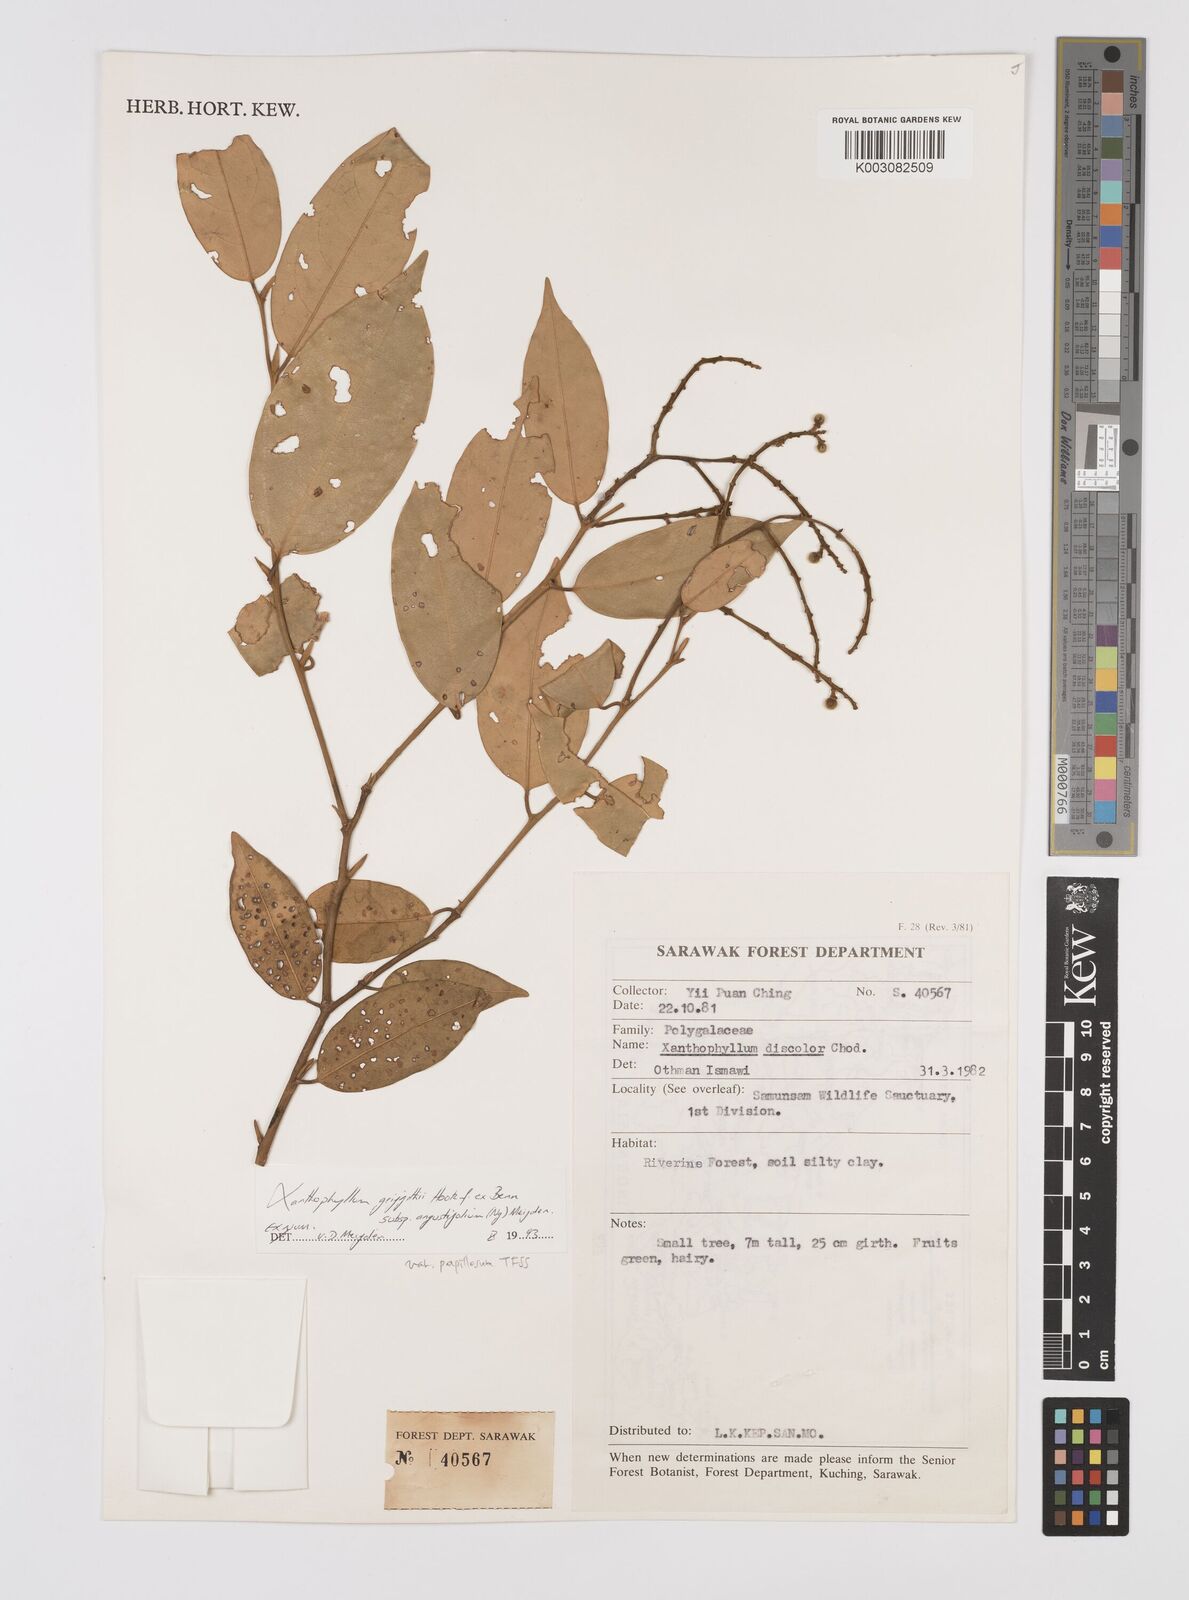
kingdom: Plantae
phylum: Tracheophyta
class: Magnoliopsida
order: Fabales
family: Polygalaceae
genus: Xanthophyllum
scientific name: Xanthophyllum griffithii
